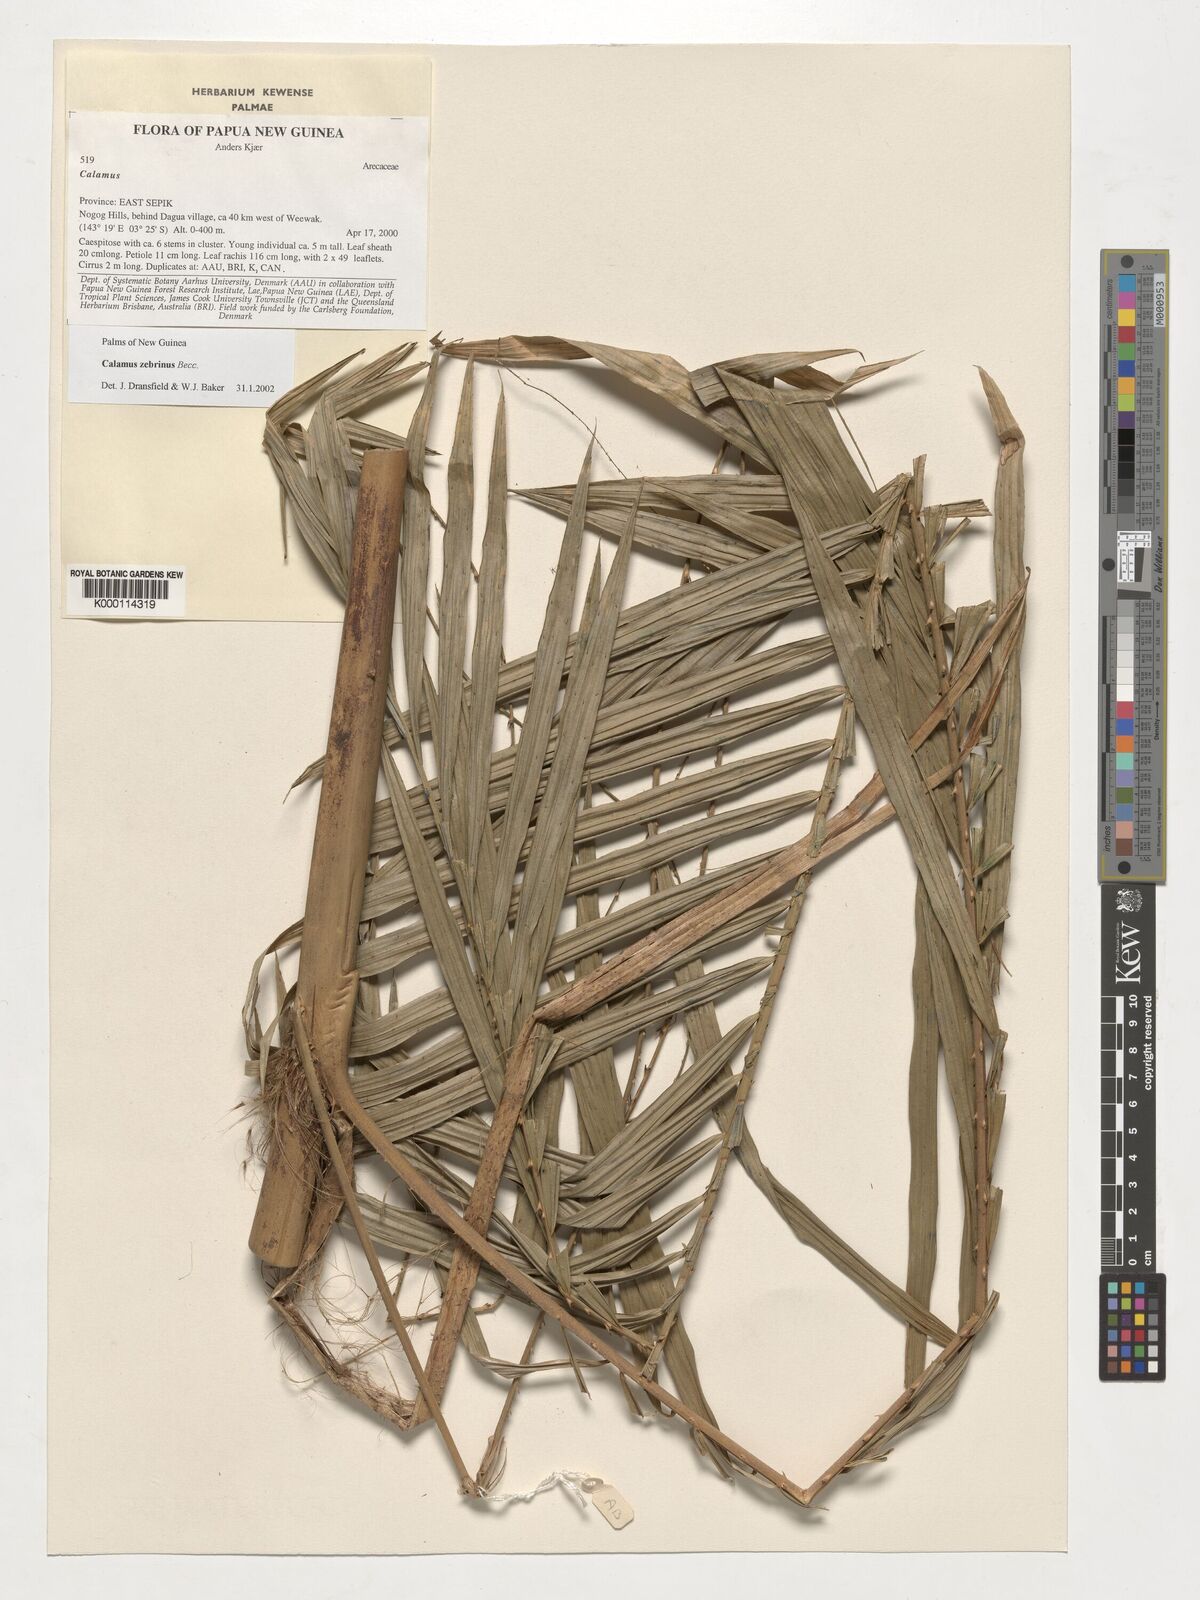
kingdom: Plantae
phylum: Tracheophyta
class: Liliopsida
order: Arecales
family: Arecaceae
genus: Calamus
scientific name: Calamus zebrinus
